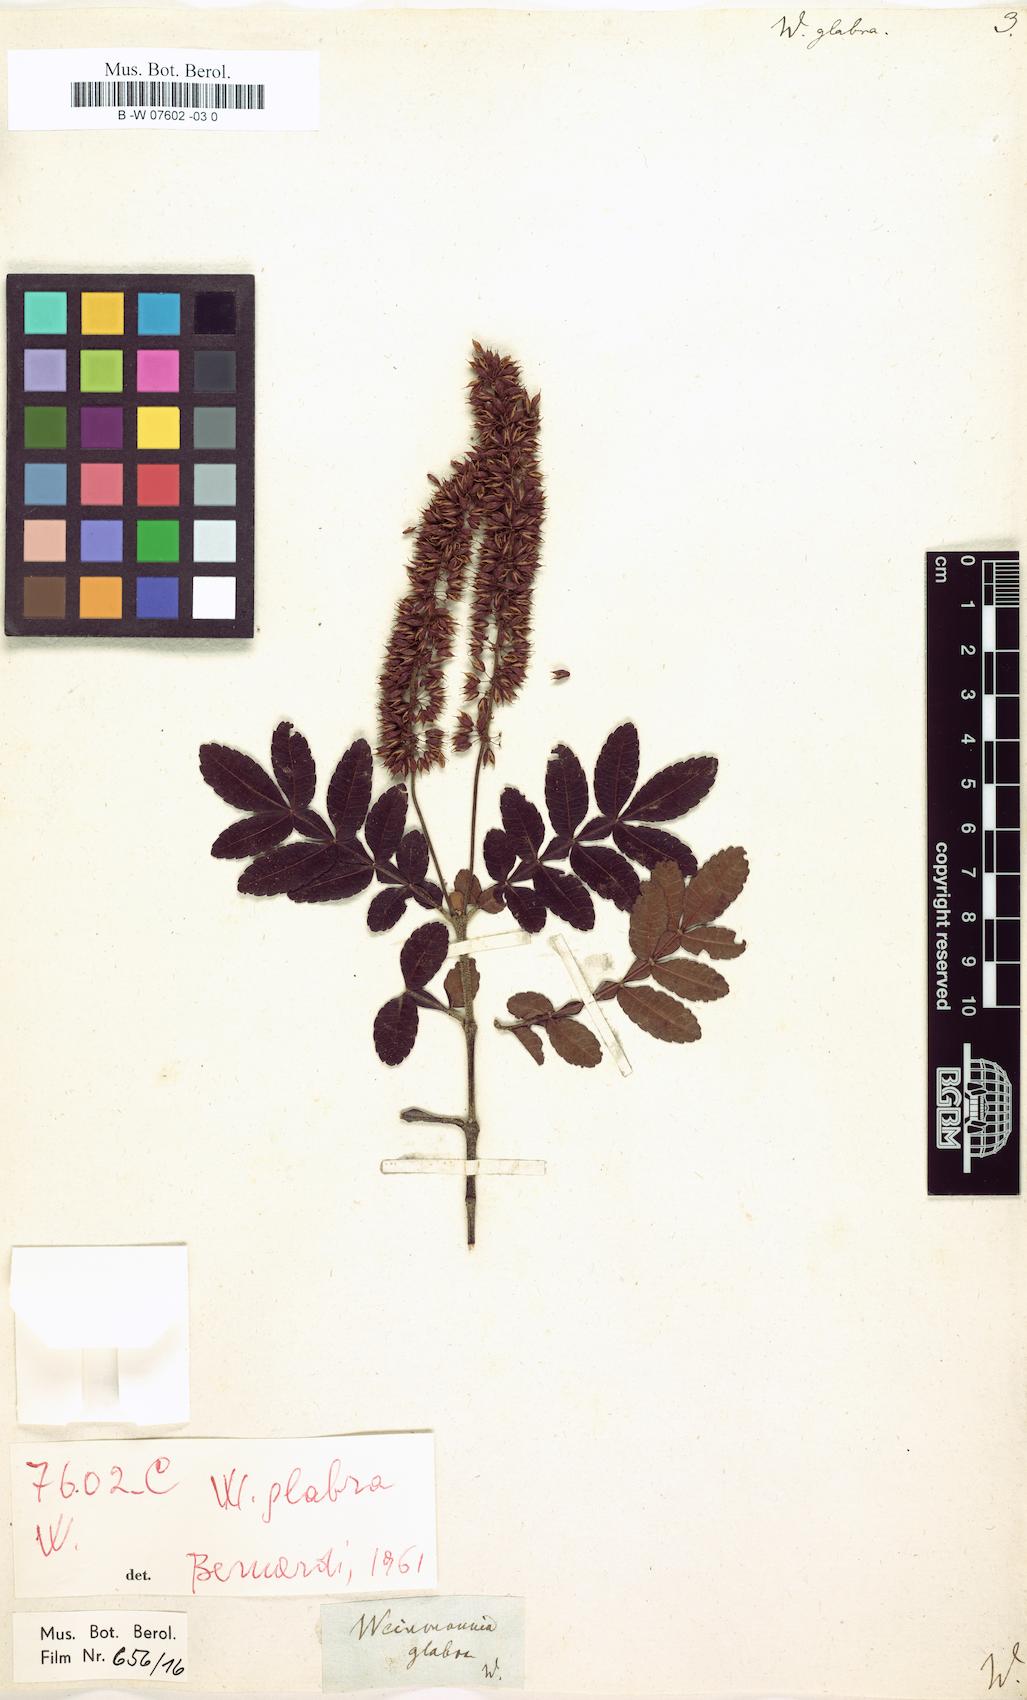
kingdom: Plantae
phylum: Tracheophyta
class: Magnoliopsida
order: Oxalidales
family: Cunoniaceae
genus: Weinmannia
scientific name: Weinmannia pinnata
